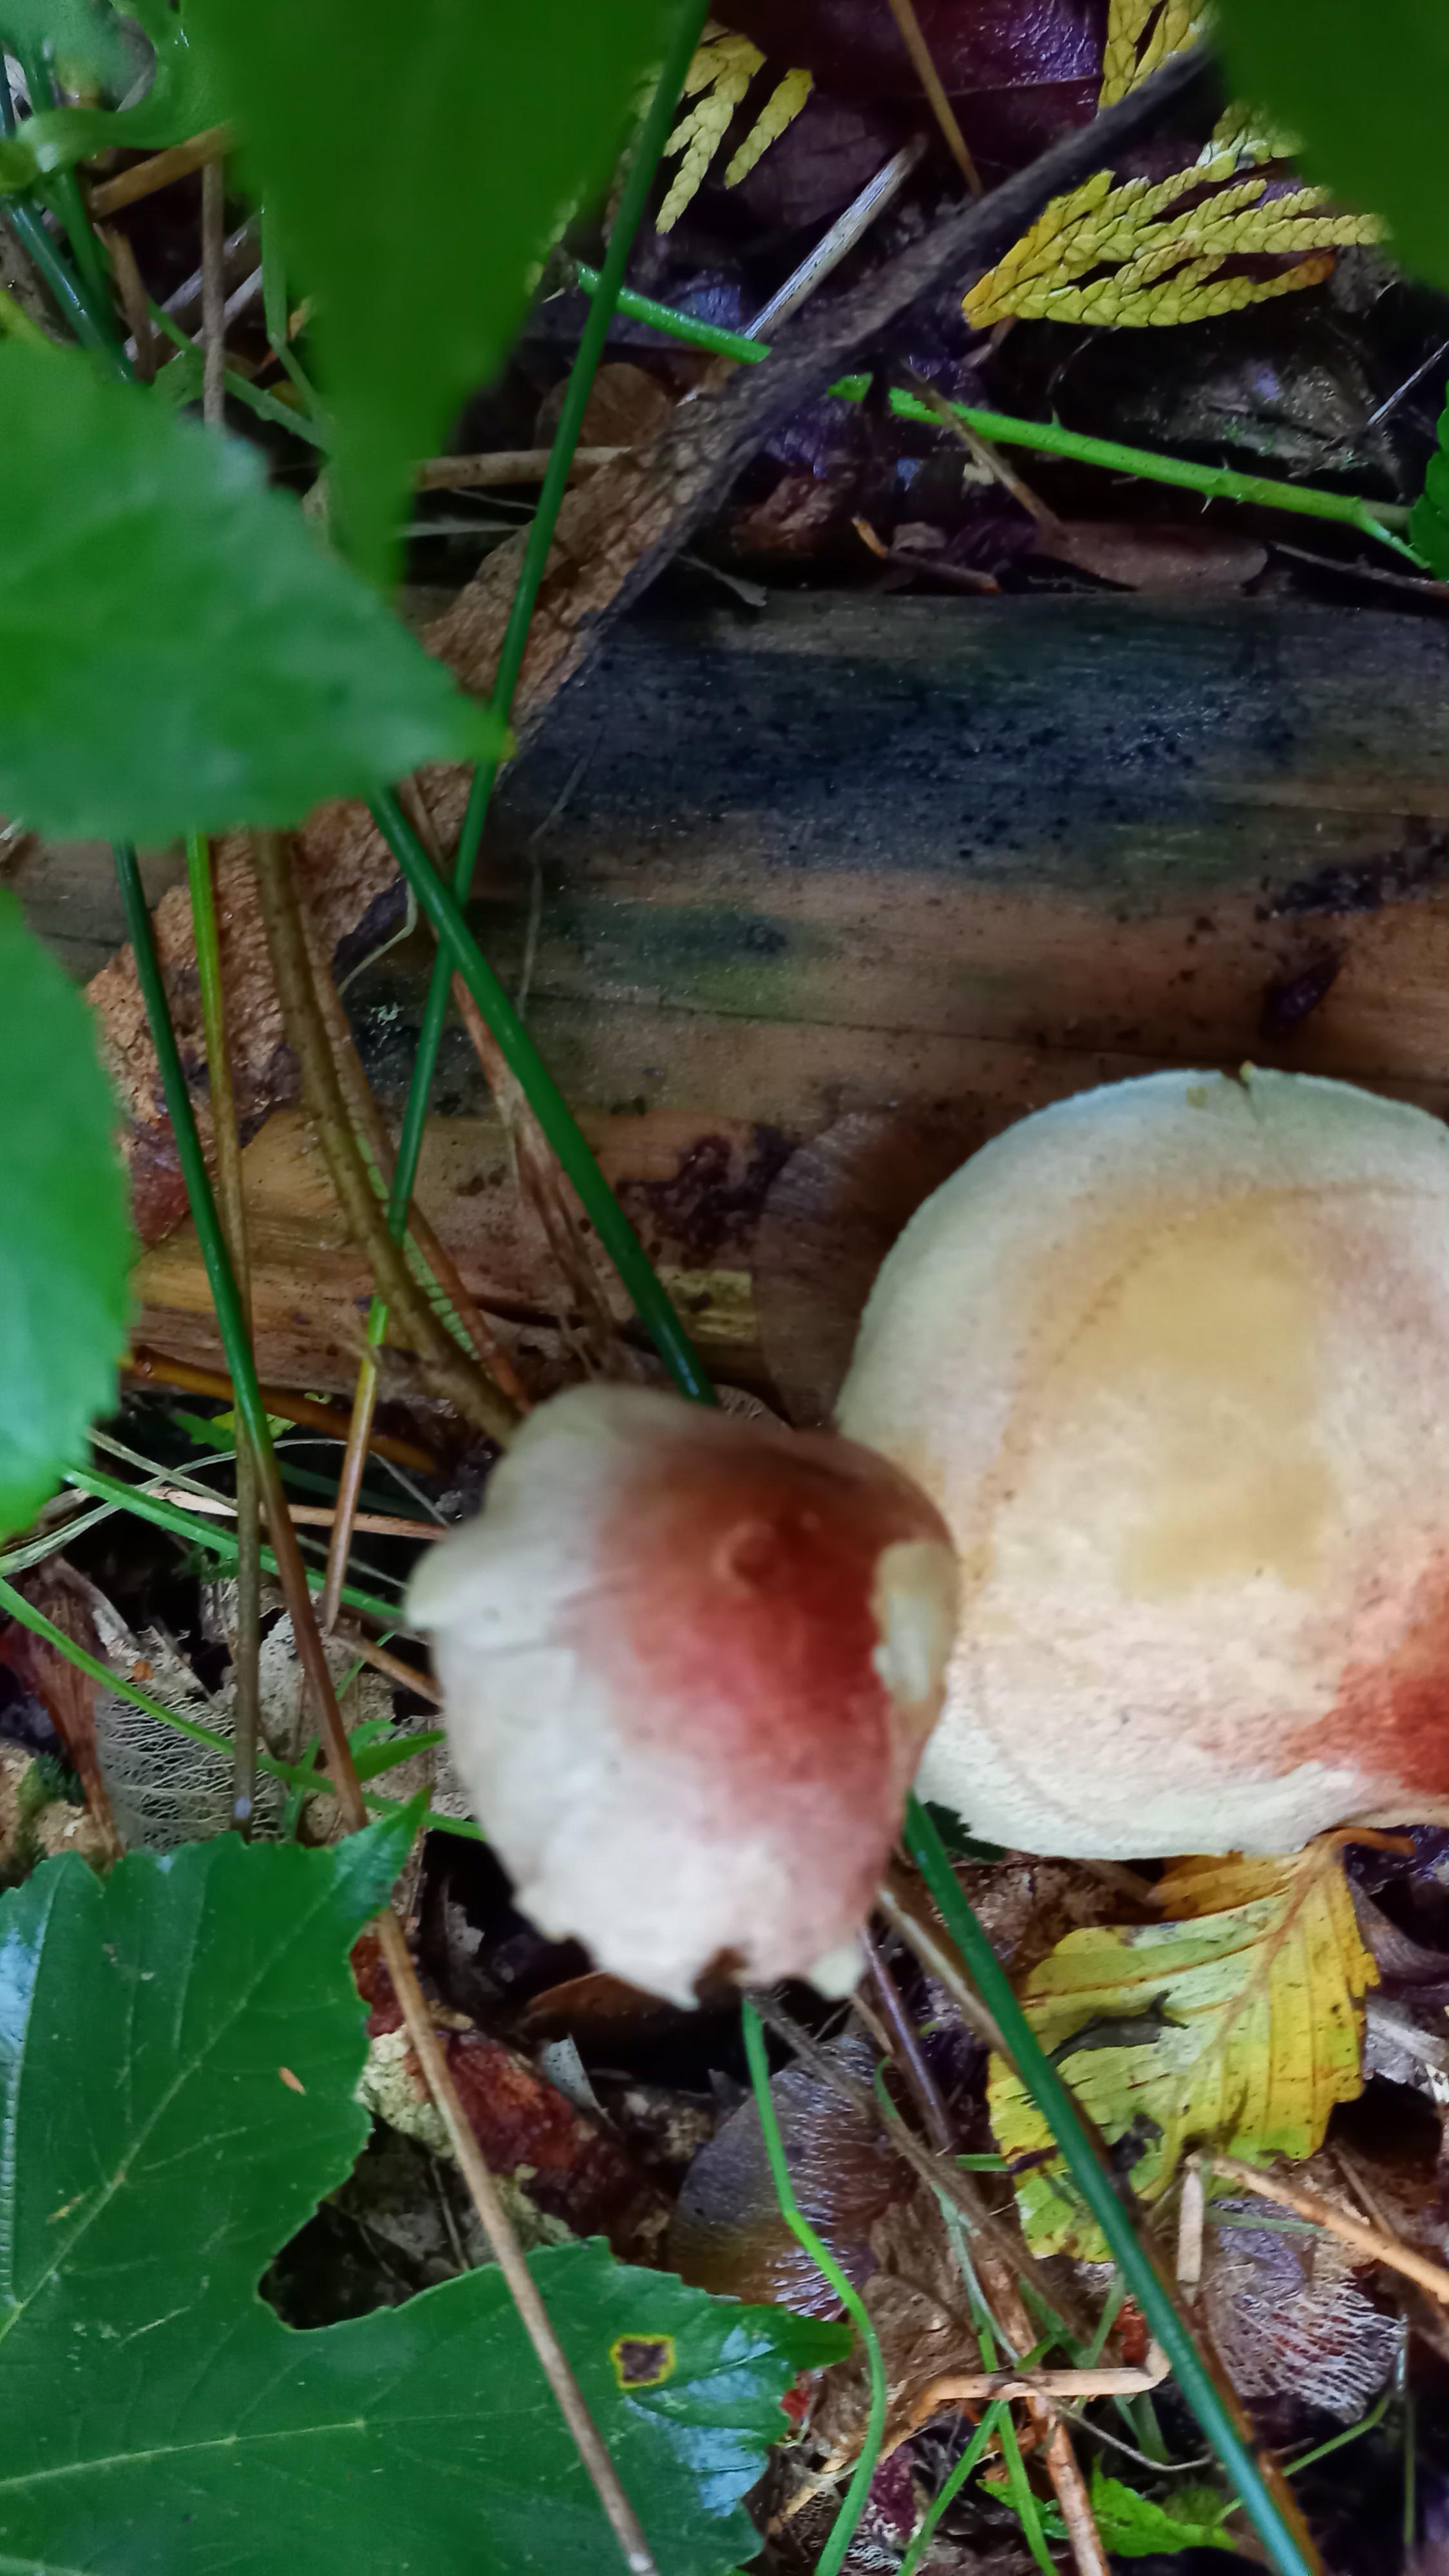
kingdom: Fungi
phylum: Basidiomycota
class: Agaricomycetes
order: Agaricales
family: Tricholomataceae
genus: Tricholomopsis
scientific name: Tricholomopsis rutilans
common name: purpur-væbnerhat
